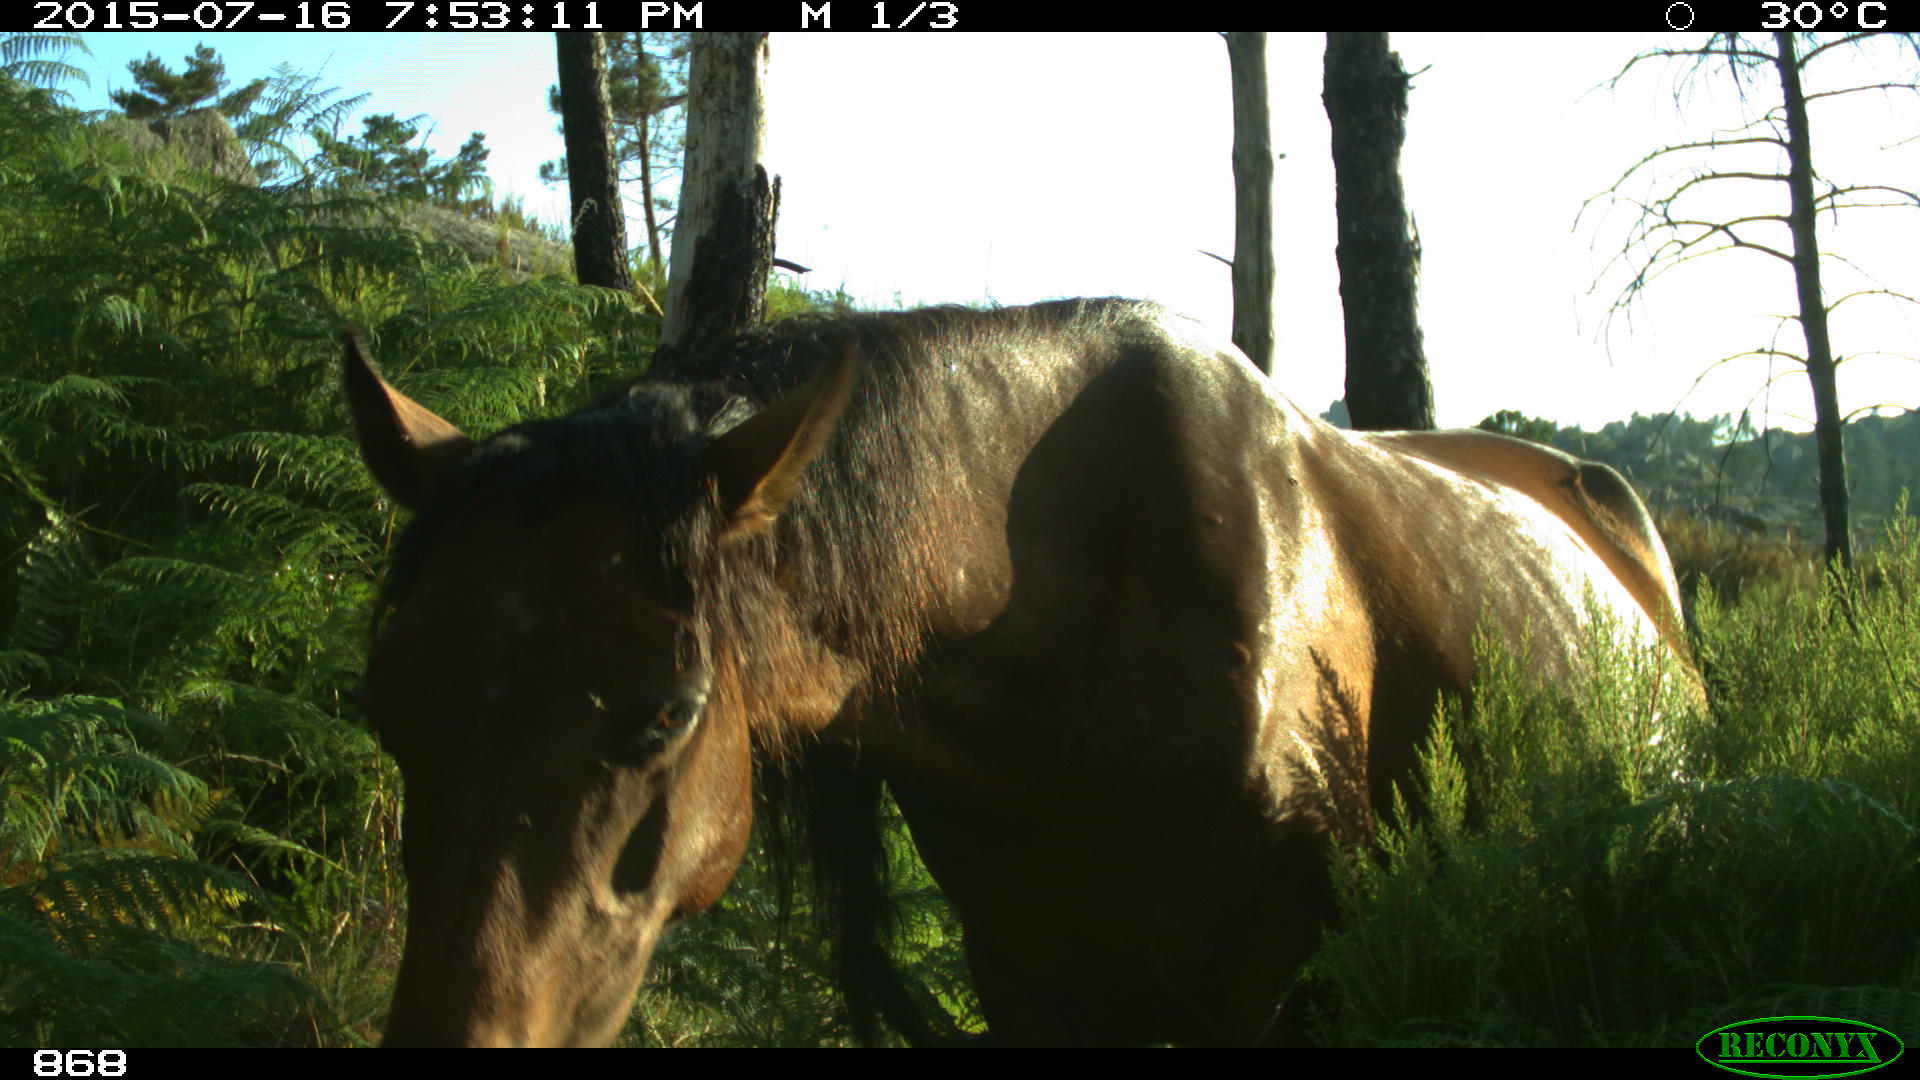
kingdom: Animalia
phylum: Chordata
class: Mammalia
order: Perissodactyla
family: Equidae
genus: Equus
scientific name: Equus caballus
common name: Horse
